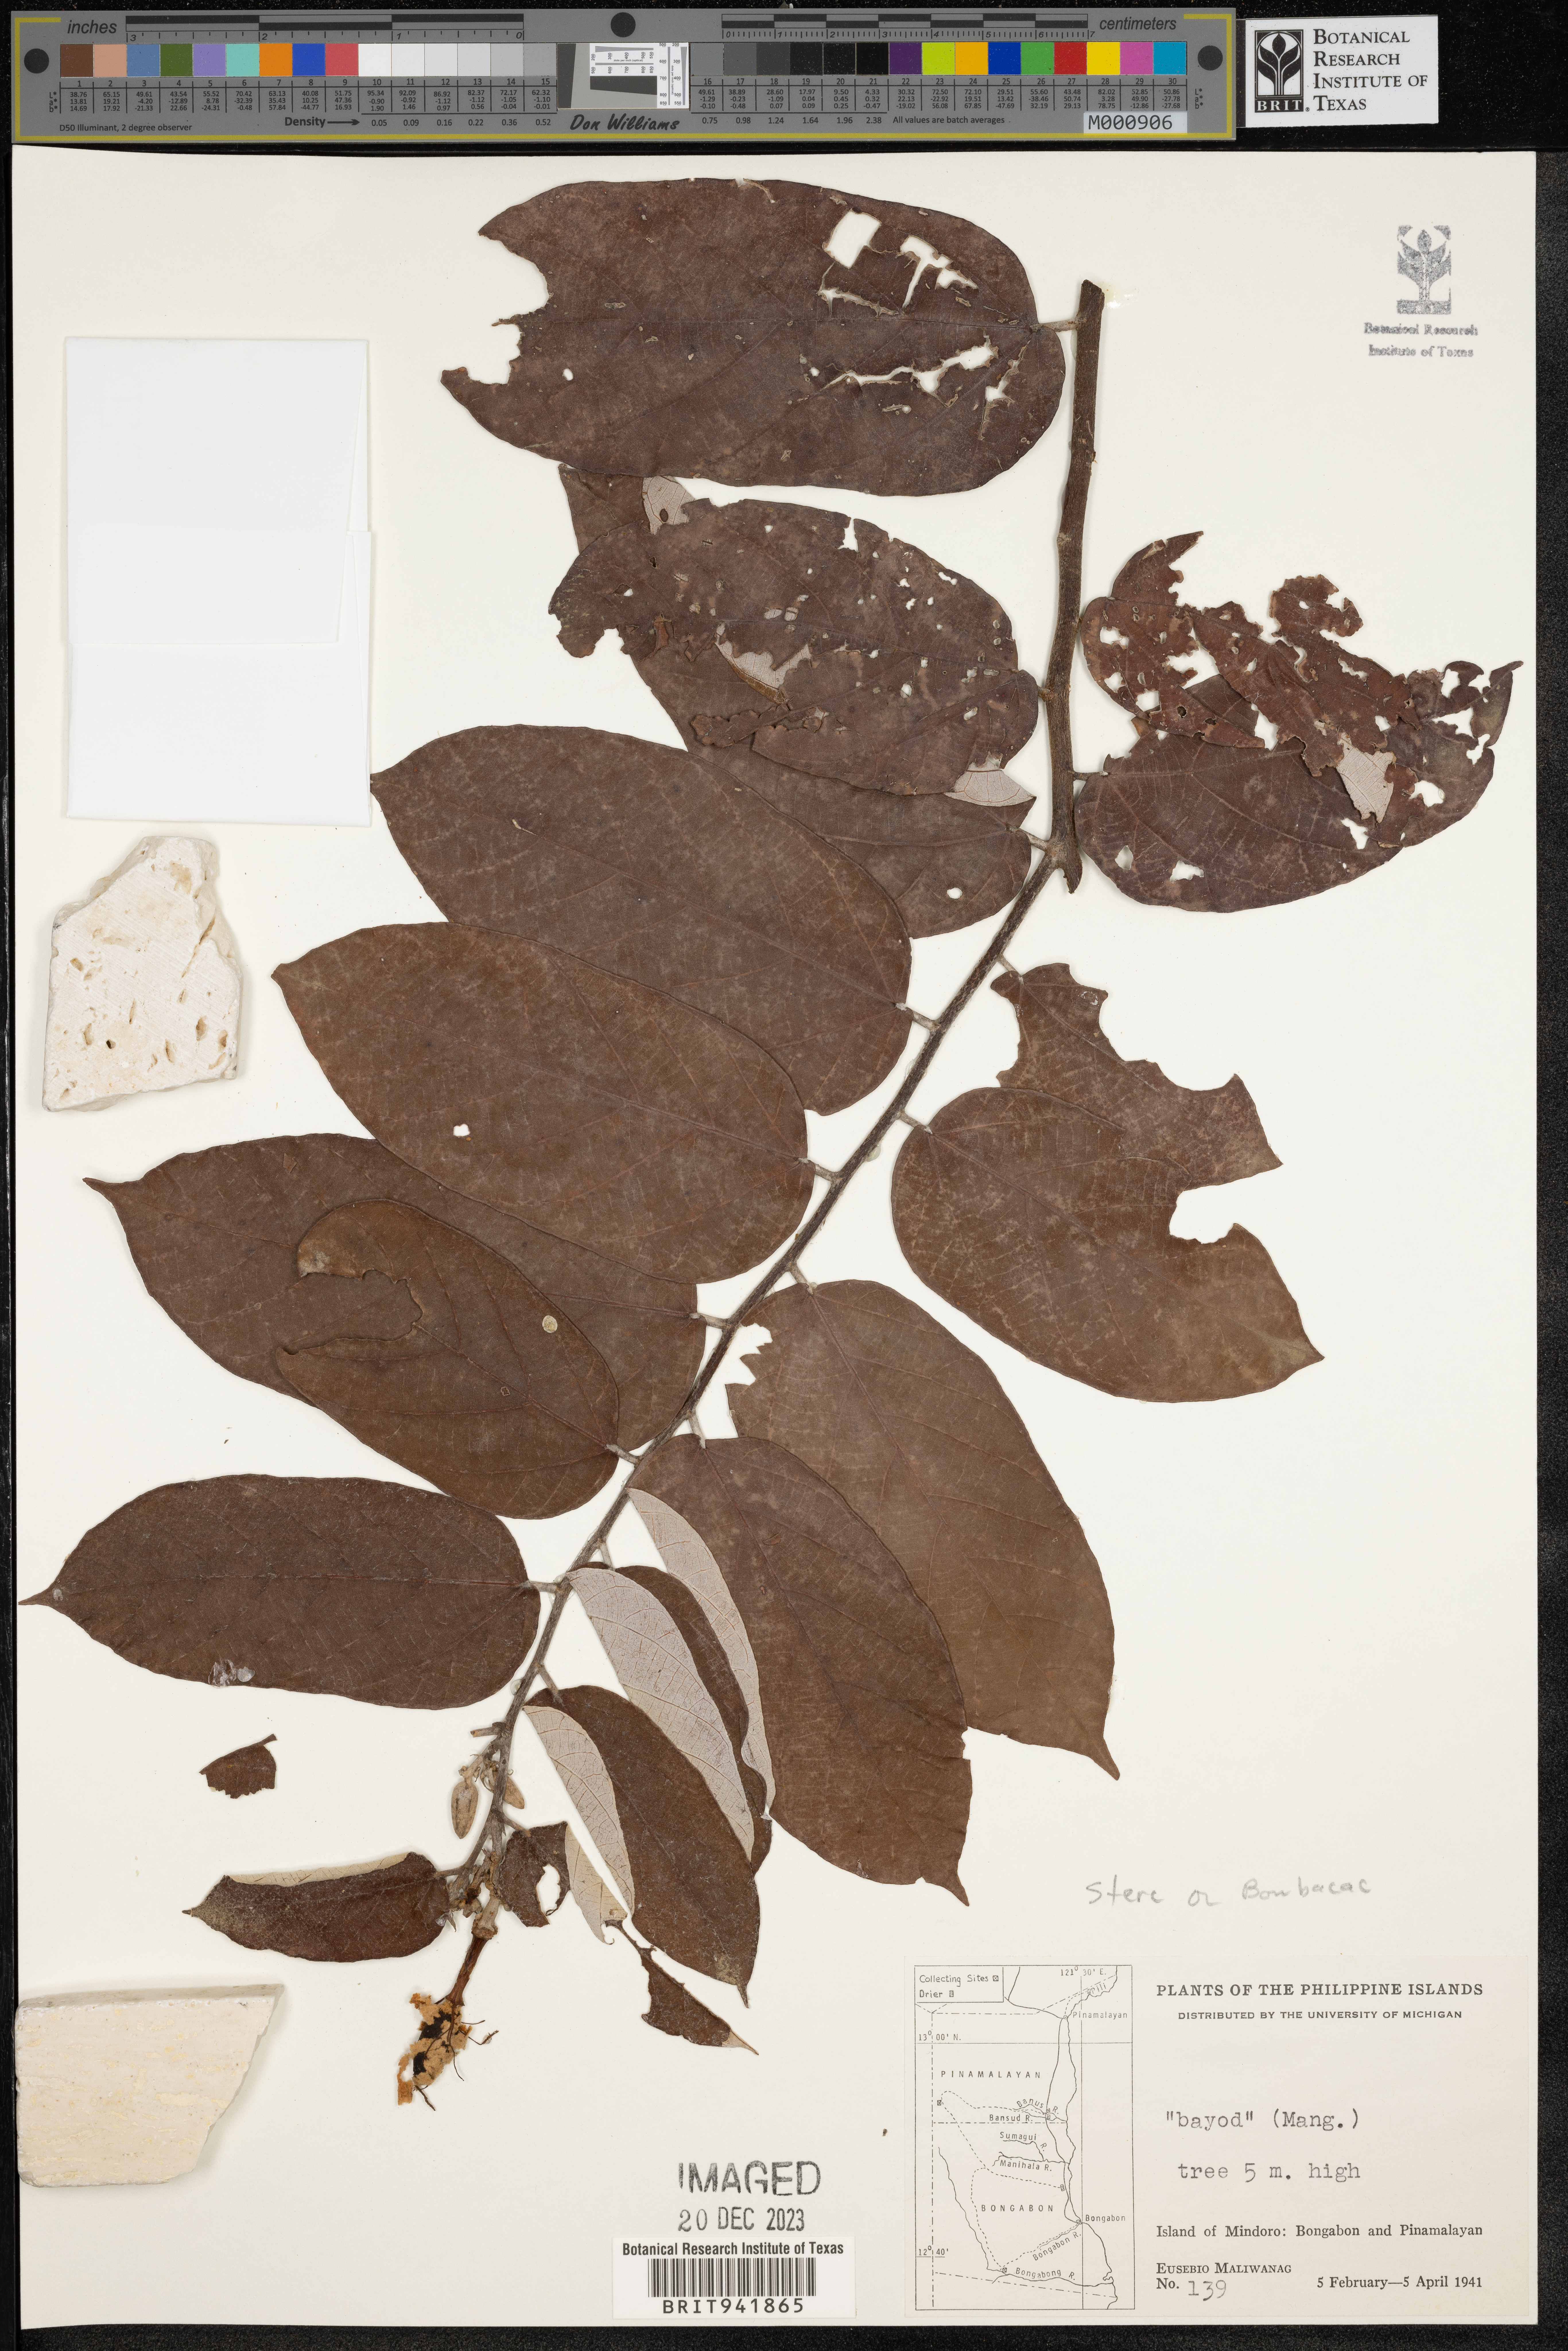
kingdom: Plantae
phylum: Tracheophyta
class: Magnoliopsida
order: Malvales
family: Malvaceae
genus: Sterculia
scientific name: Sterculia
